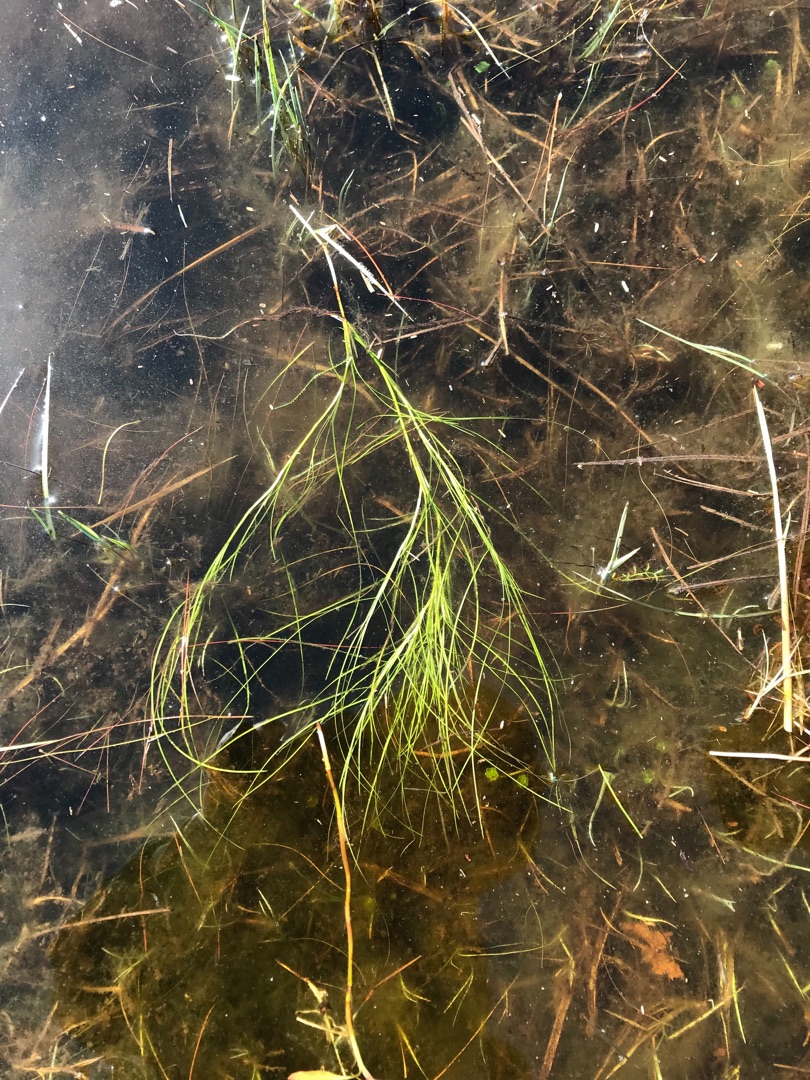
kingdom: Plantae
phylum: Tracheophyta
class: Liliopsida
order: Poales
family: Cyperaceae
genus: Isolepis
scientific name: Isolepis fluitans
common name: Flydende kogleaks
